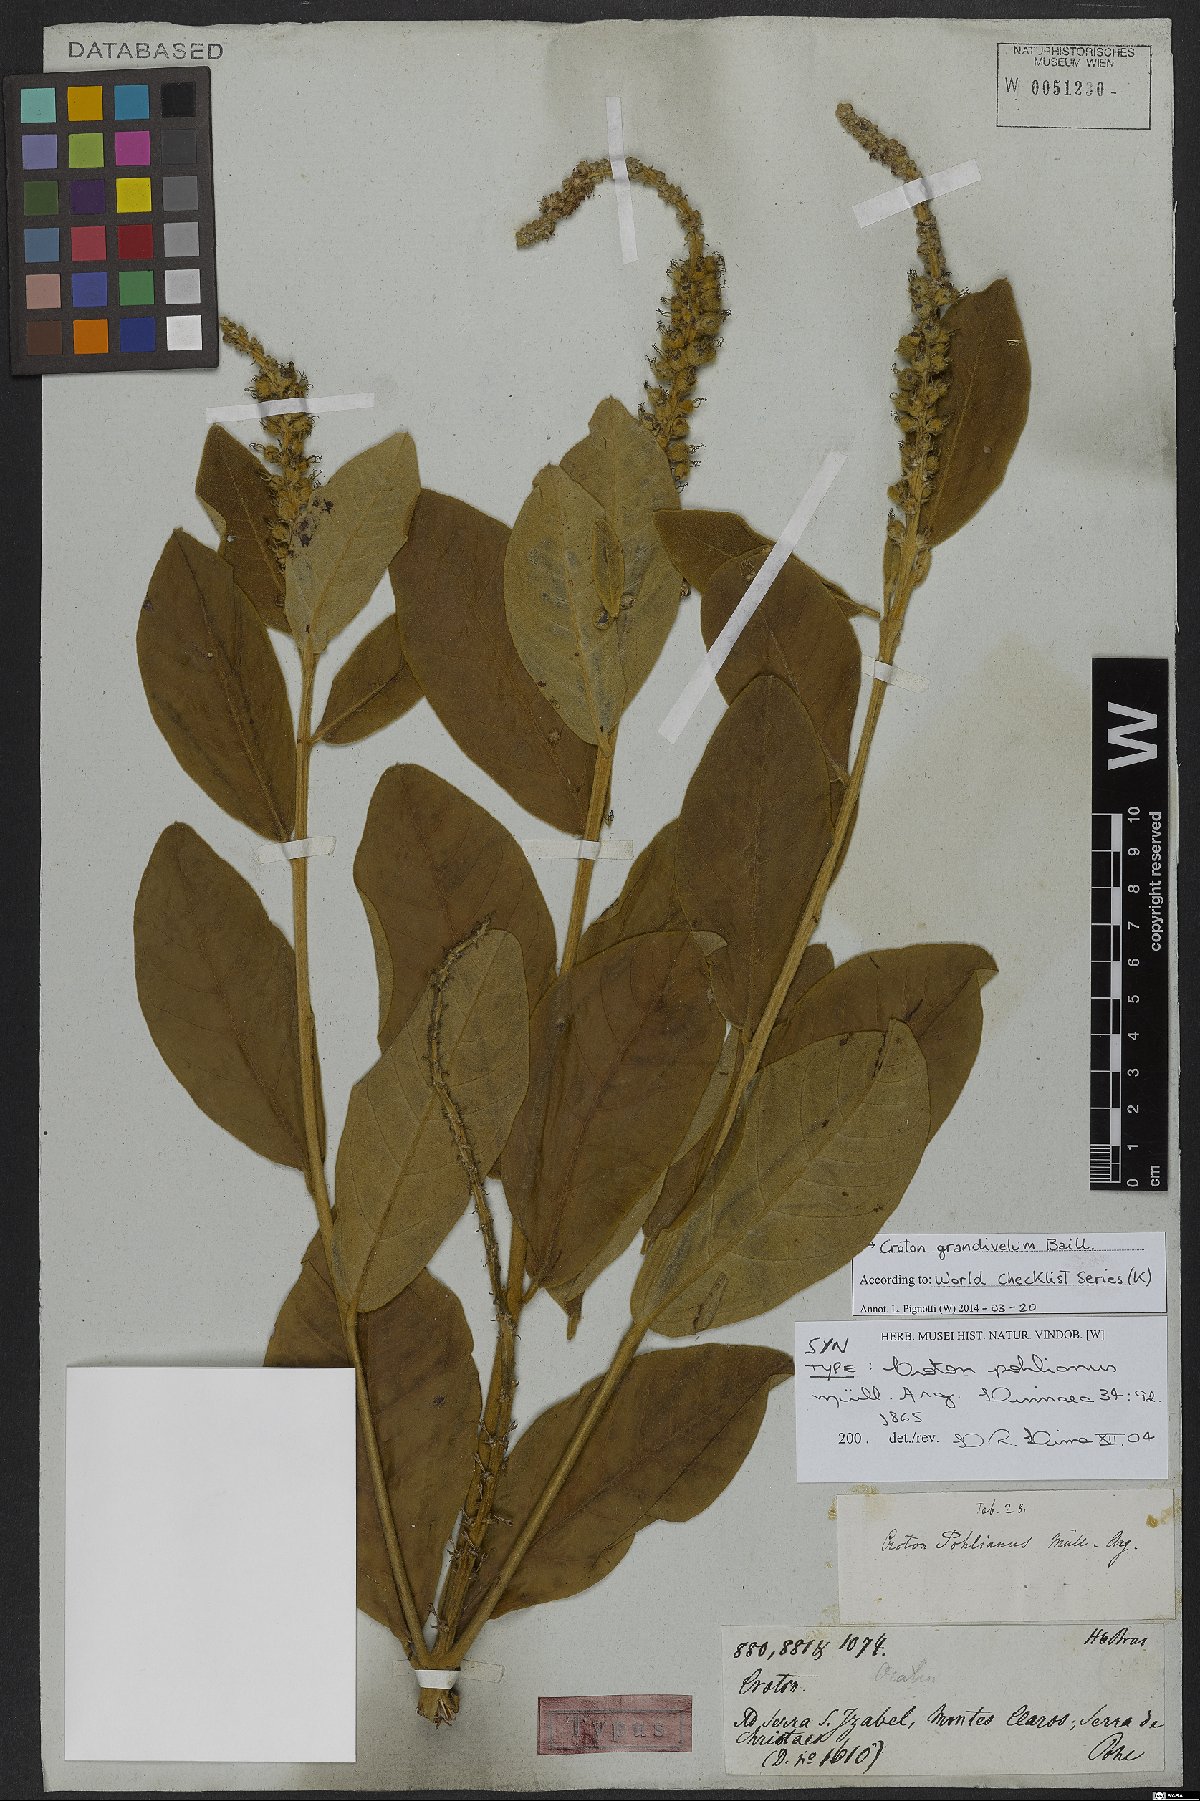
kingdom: Plantae
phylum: Tracheophyta
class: Magnoliopsida
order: Malpighiales
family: Euphorbiaceae
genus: Croton
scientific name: Croton grandivelum
